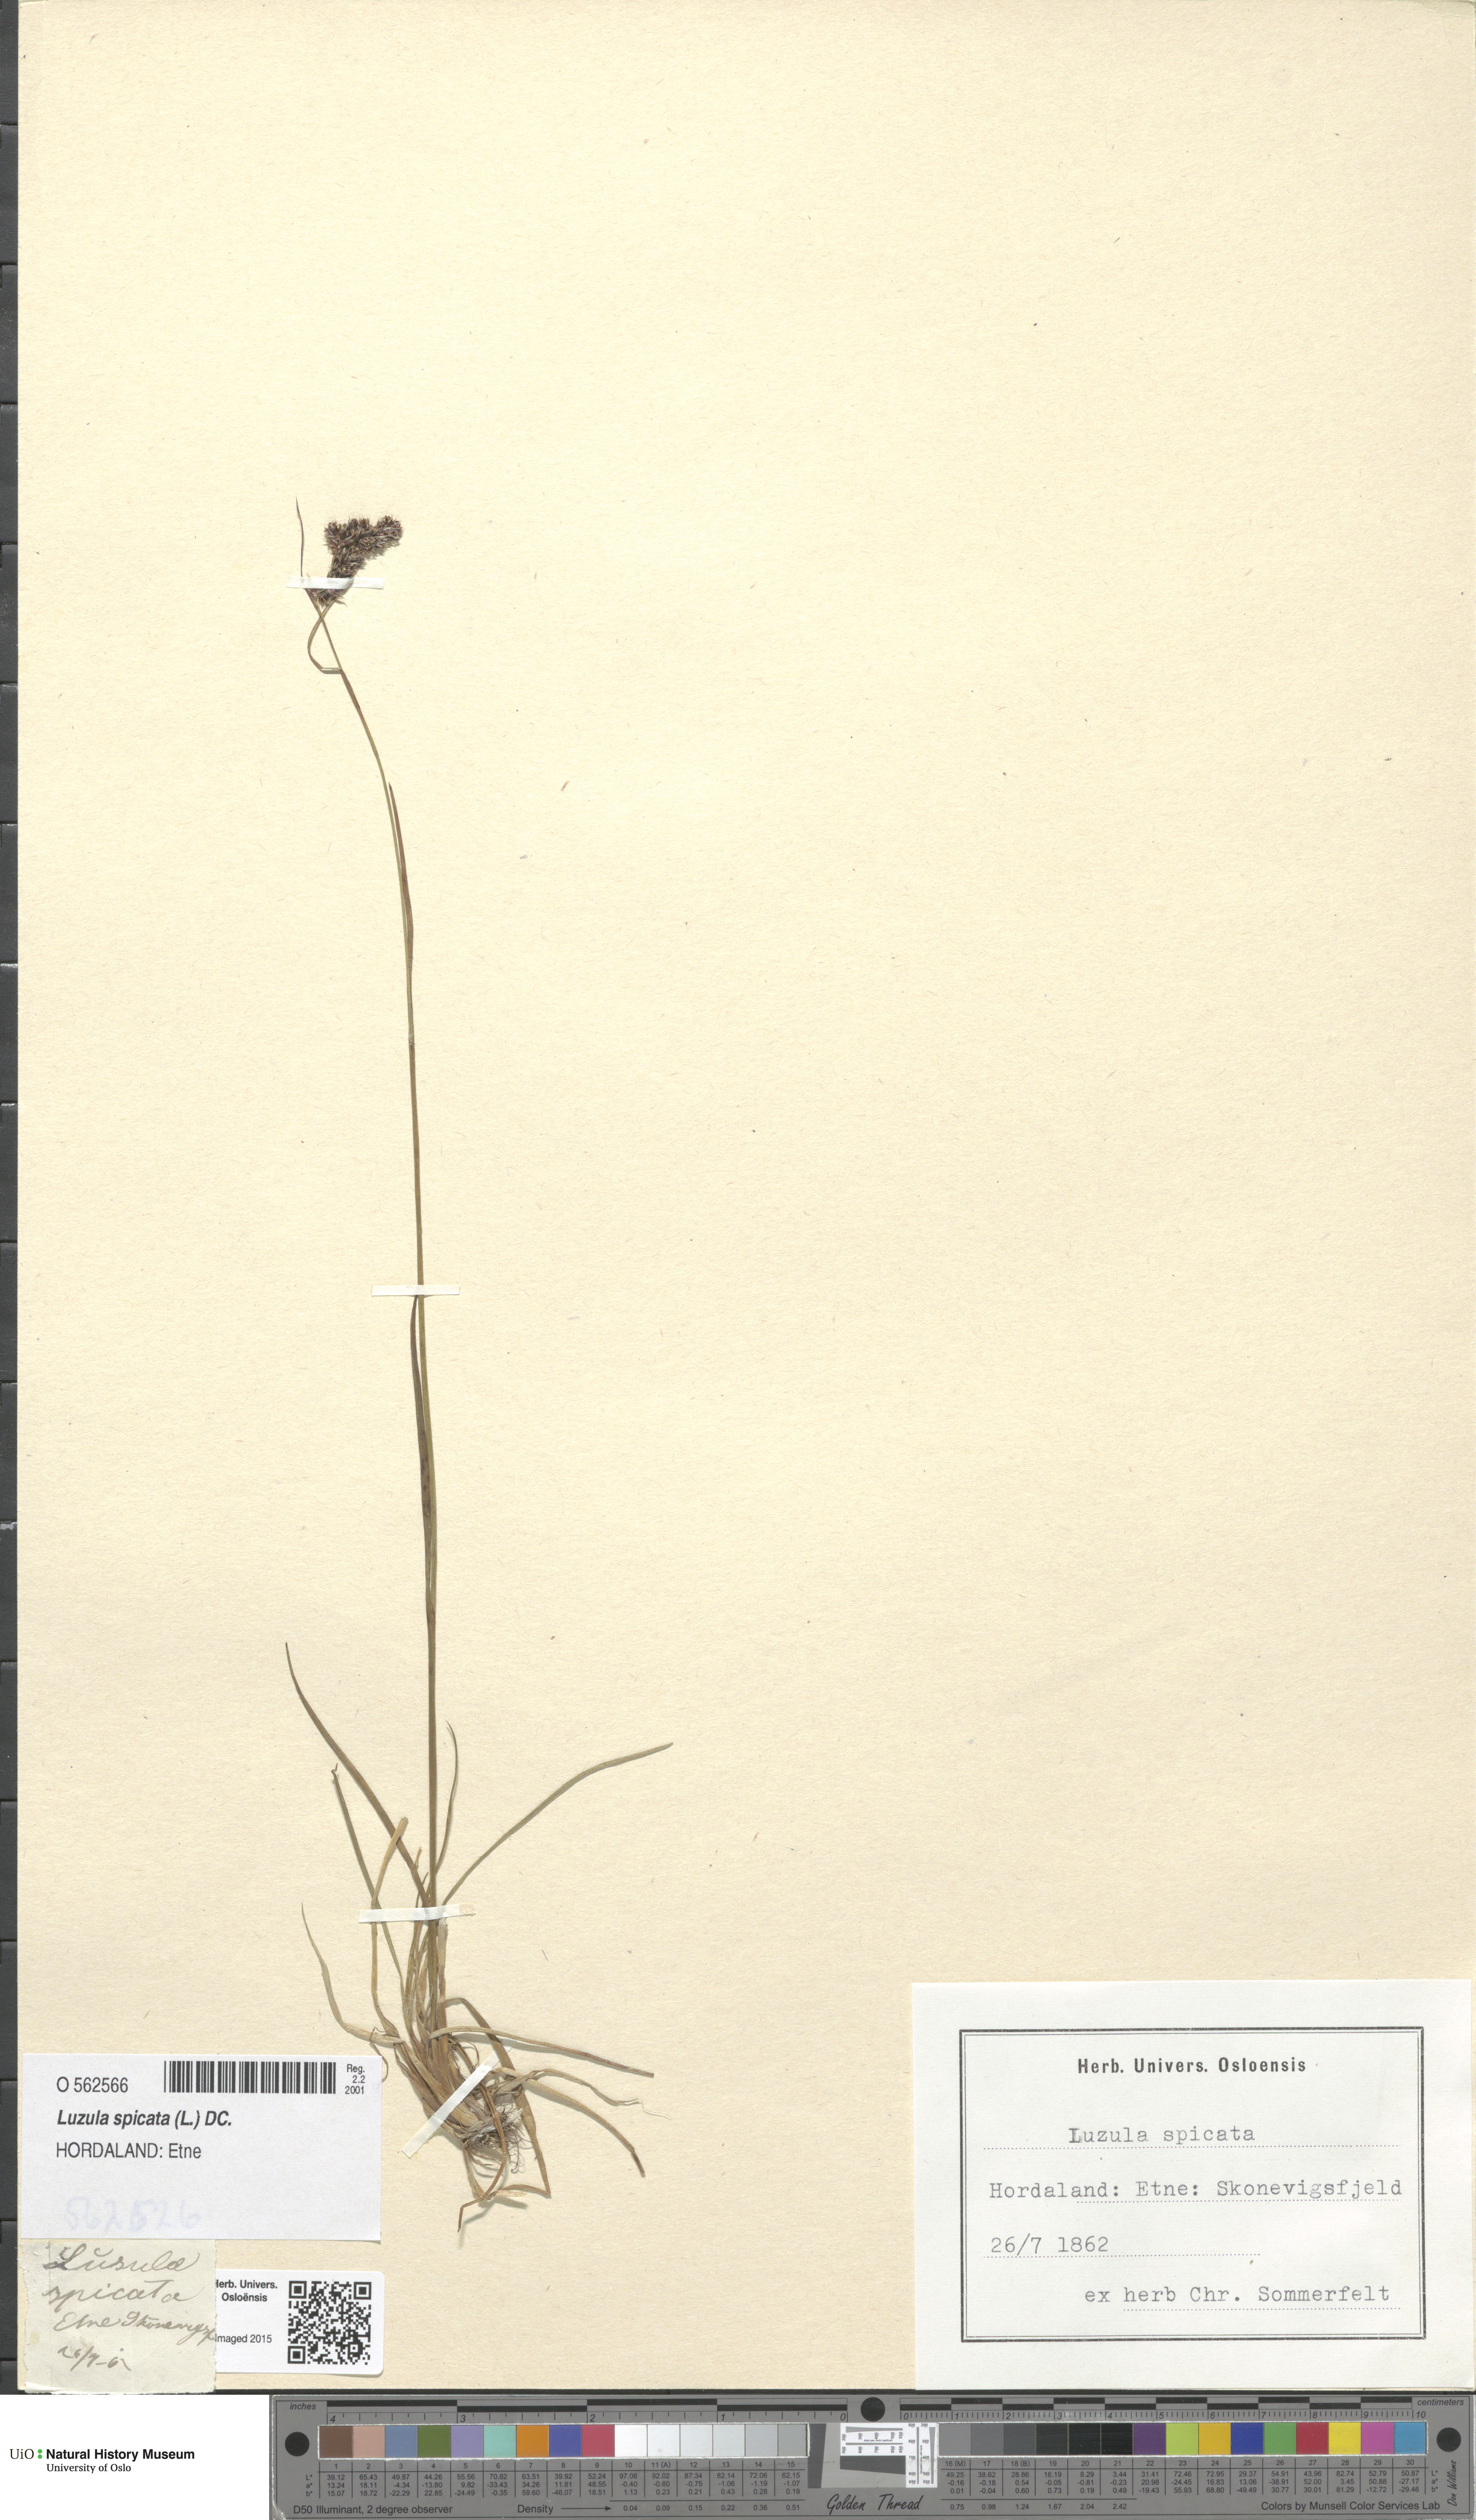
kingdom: Plantae
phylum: Tracheophyta
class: Liliopsida
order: Poales
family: Juncaceae
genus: Luzula
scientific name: Luzula spicata
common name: Spiked wood-rush
